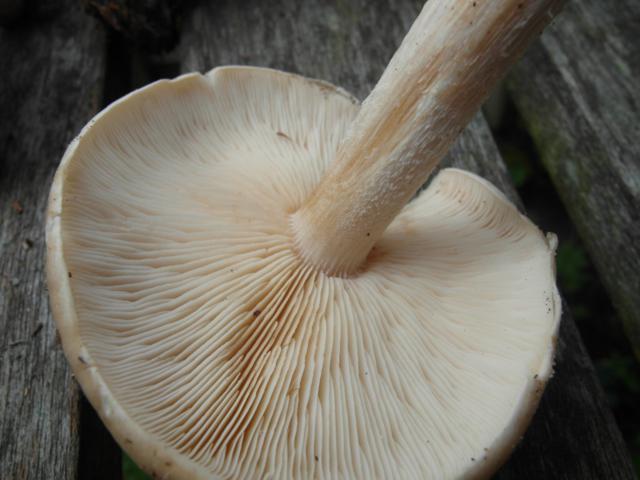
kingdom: Fungi
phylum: Basidiomycota
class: Agaricomycetes
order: Agaricales
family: Tricholomataceae
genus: Melanoleuca
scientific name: Melanoleuca cognata
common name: gyldengrå munkehat
